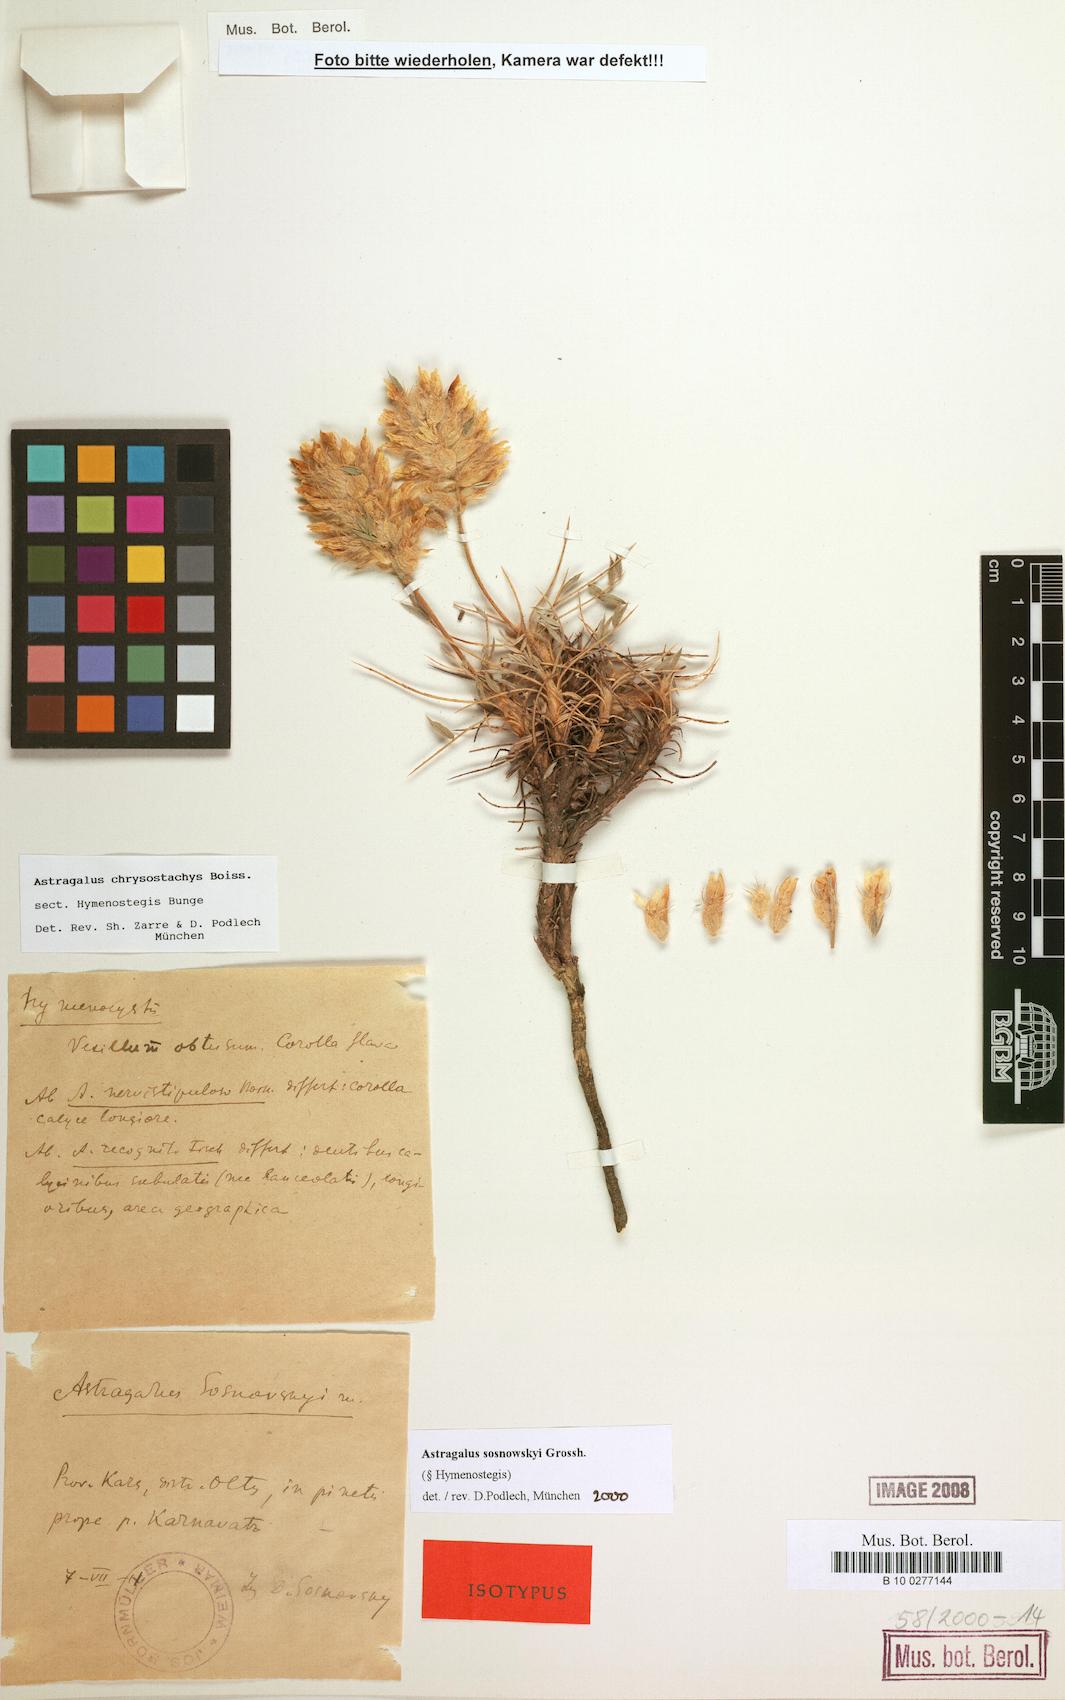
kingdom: Plantae
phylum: Tracheophyta
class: Magnoliopsida
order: Fabales
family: Fabaceae
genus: Astragalus
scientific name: Astragalus sosnowskyi
